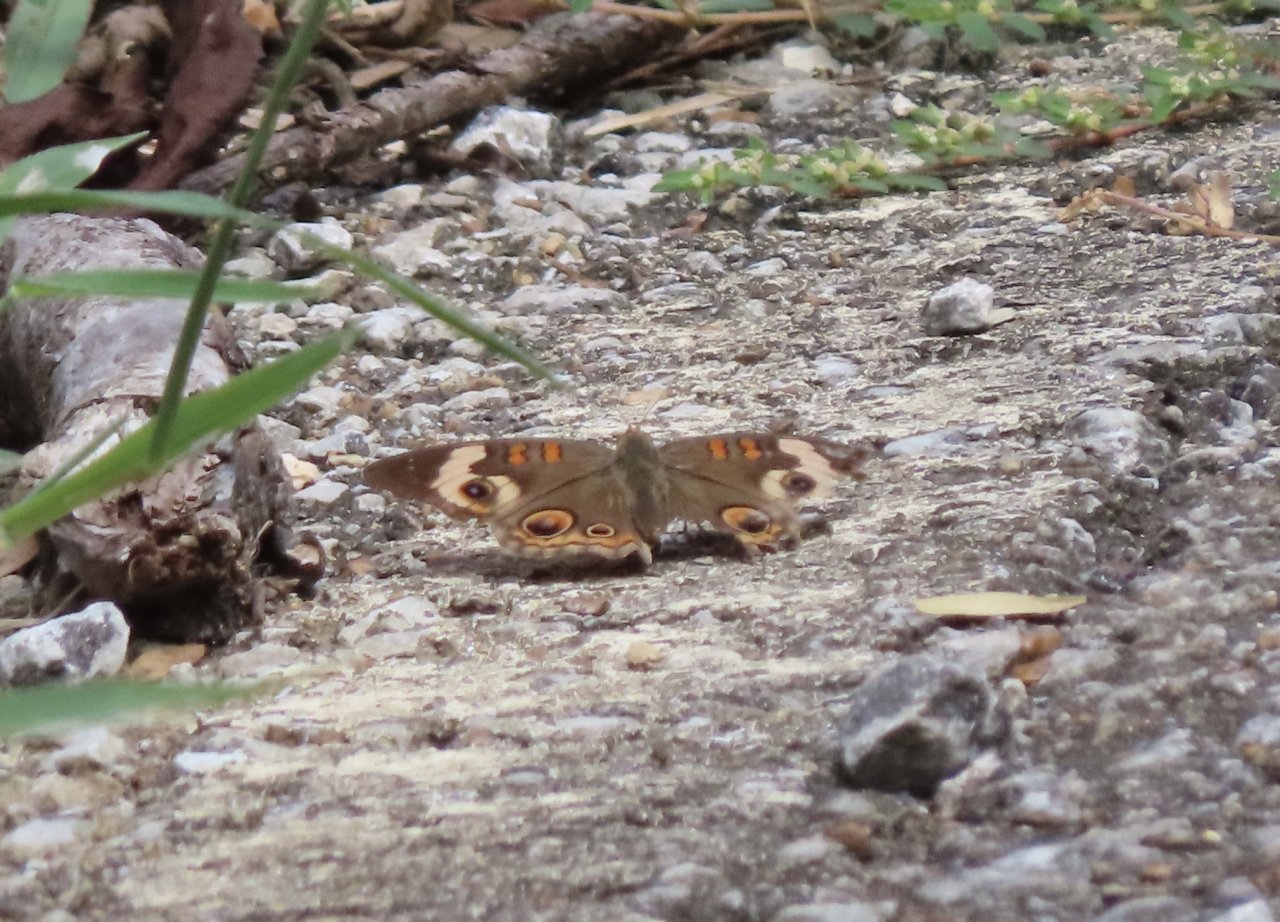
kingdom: Animalia
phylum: Arthropoda
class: Insecta
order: Lepidoptera
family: Nymphalidae
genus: Junonia
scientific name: Junonia coenia
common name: Common Buckeye
